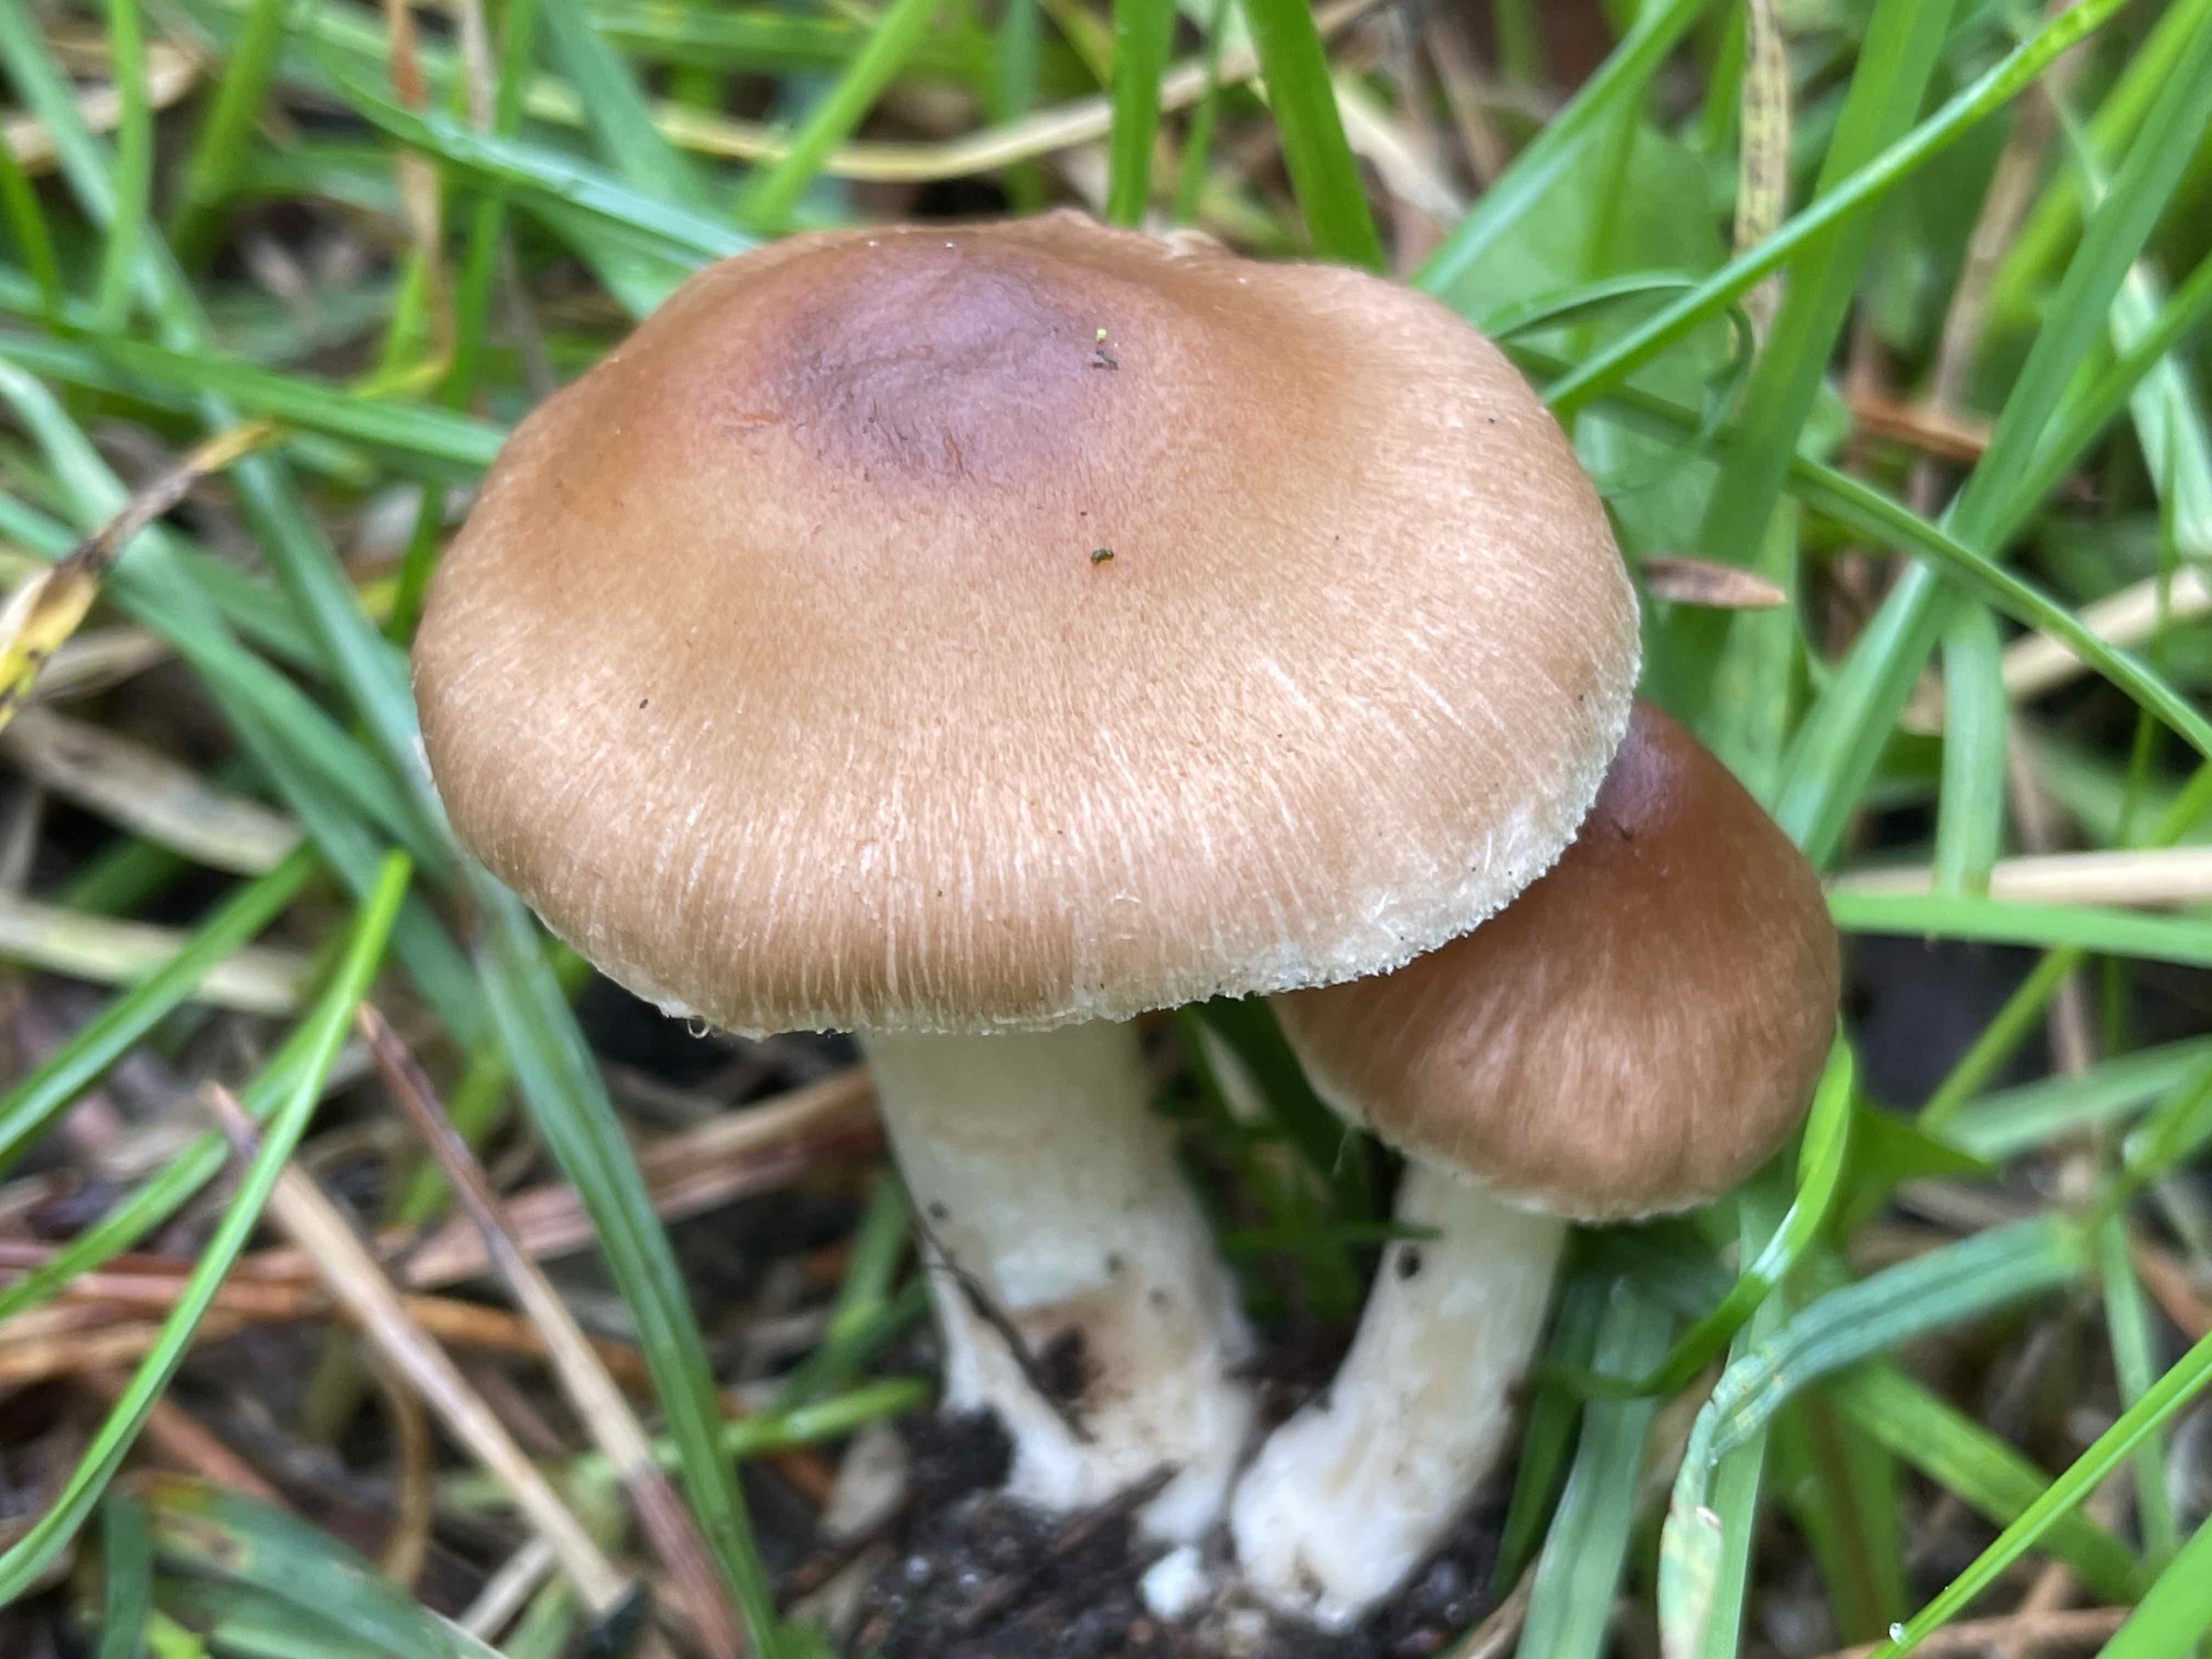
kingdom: Fungi
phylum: Basidiomycota
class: Agaricomycetes
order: Agaricales
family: Inocybaceae
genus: Inocybe
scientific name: Inocybe
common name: trævlhat
